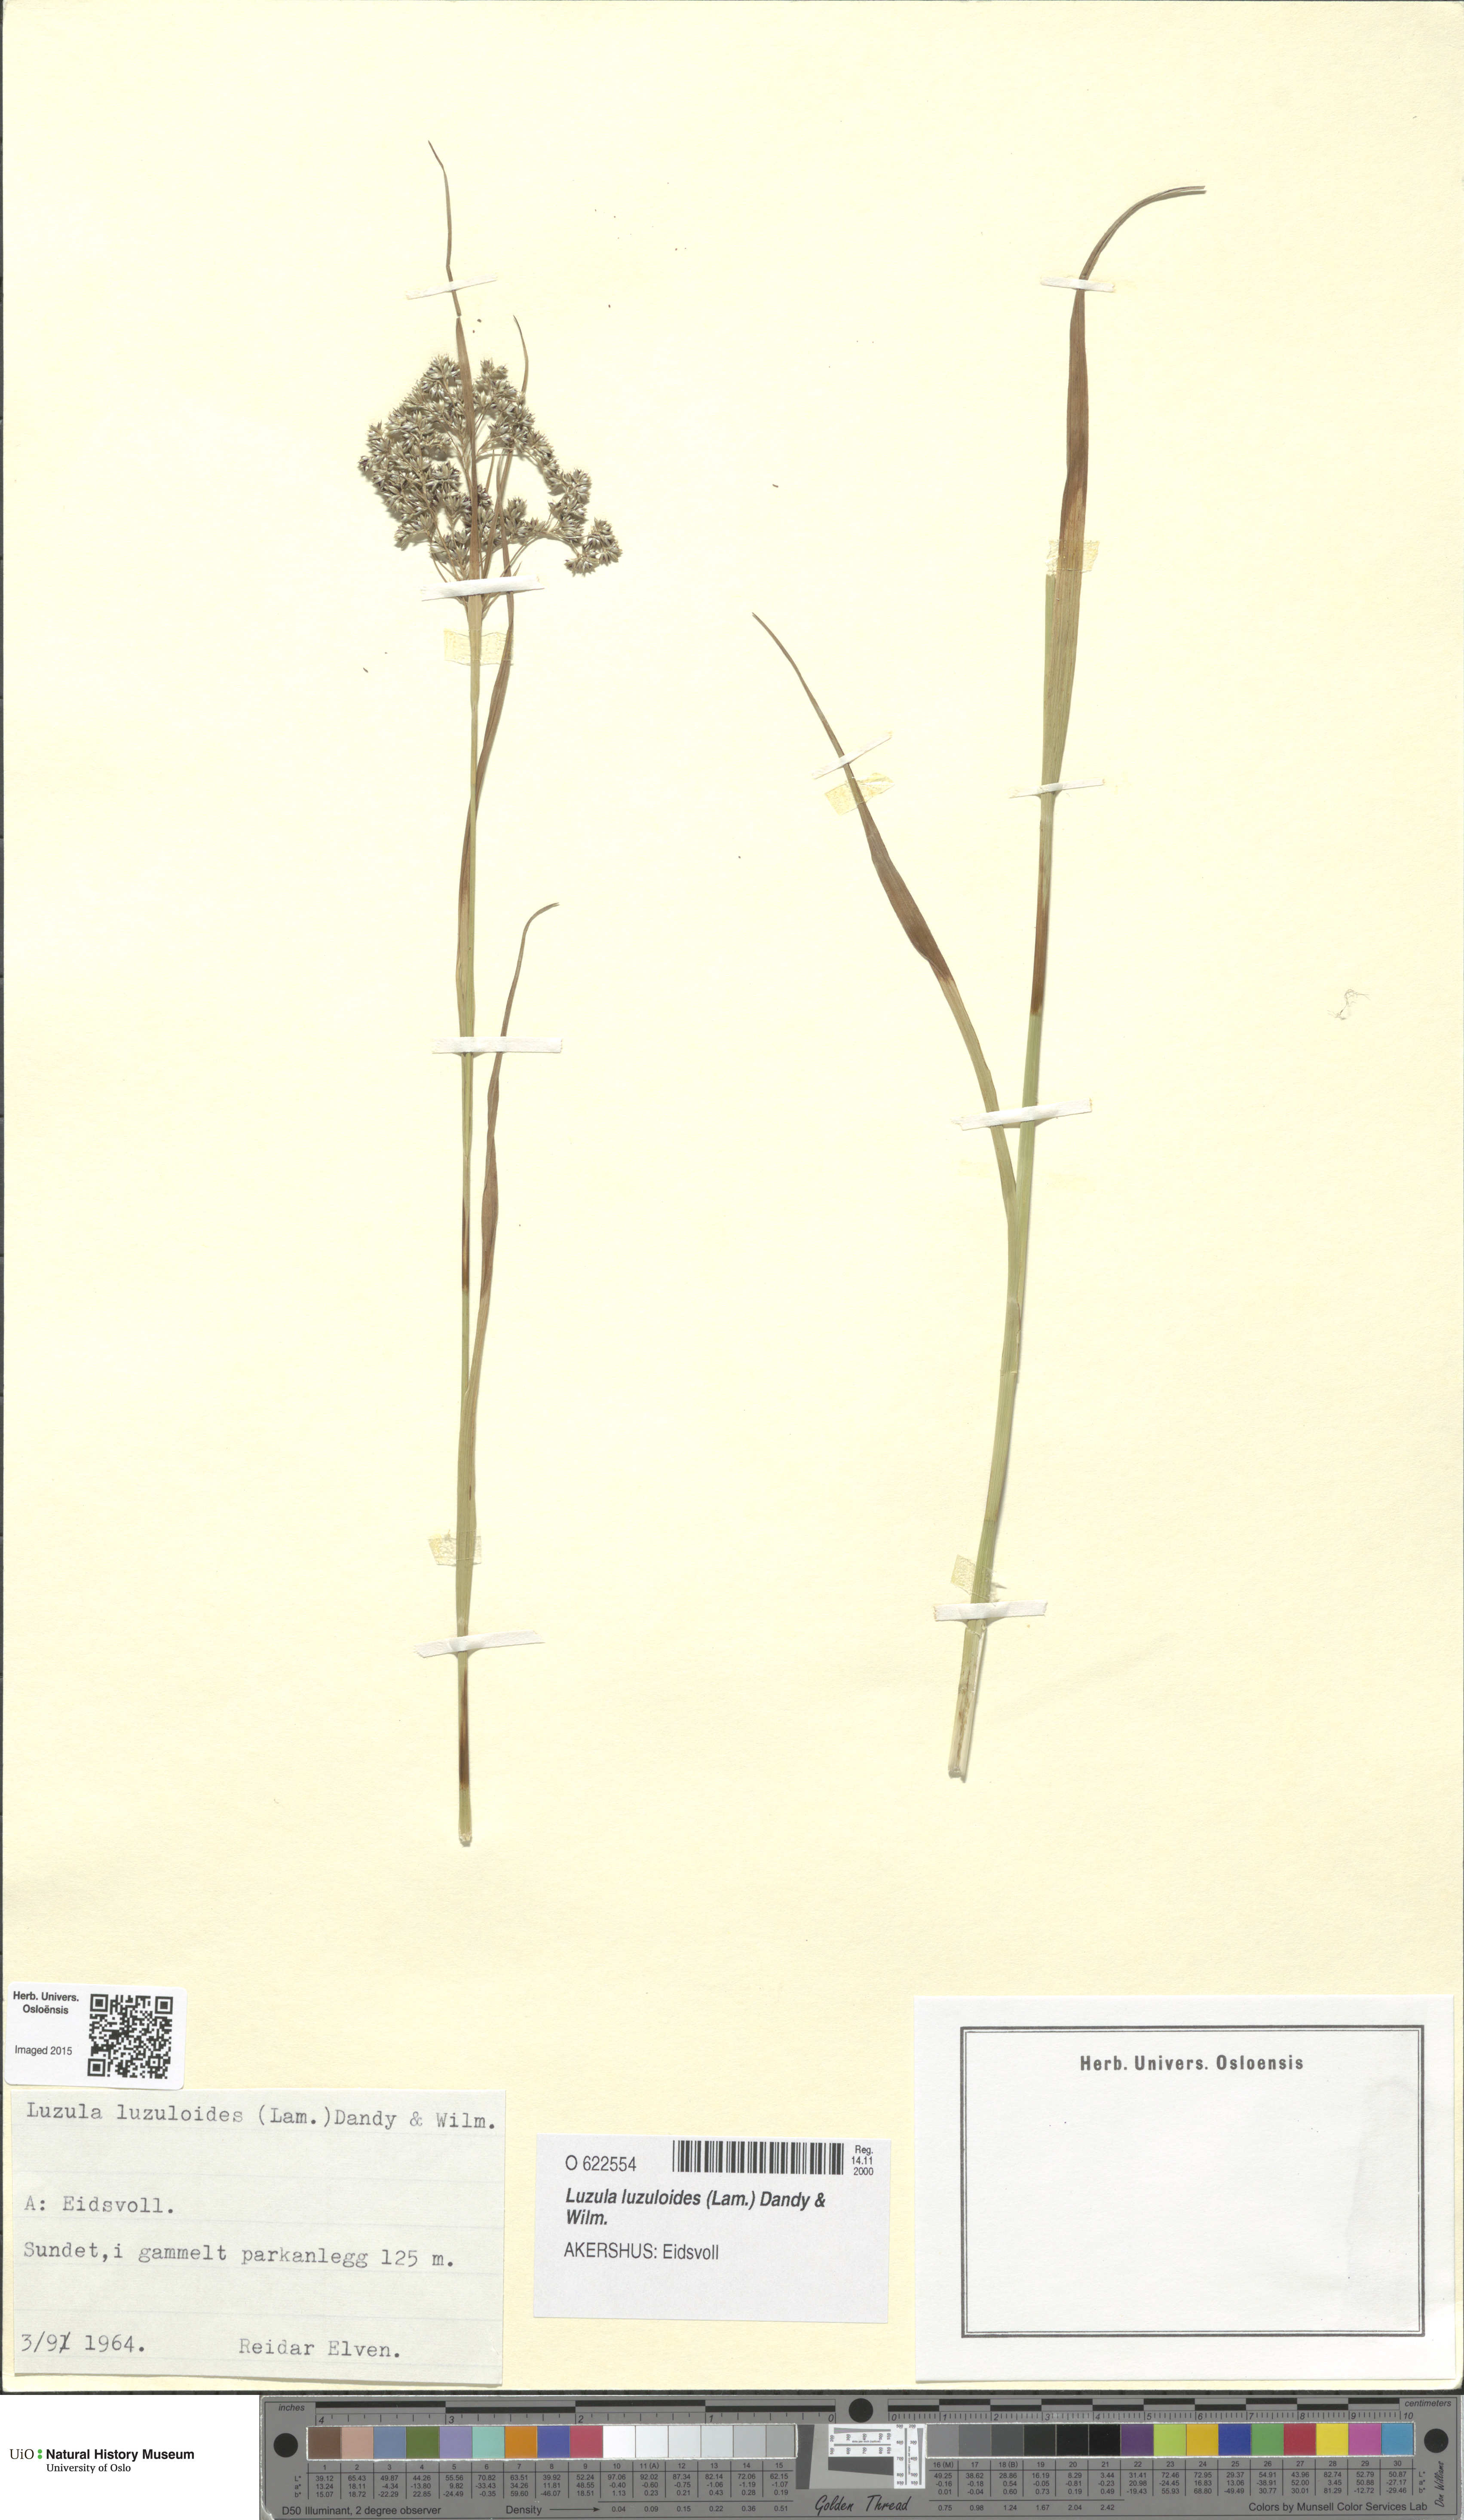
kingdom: Plantae
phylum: Tracheophyta
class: Liliopsida
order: Poales
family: Juncaceae
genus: Luzula
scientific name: Luzula luzuloides
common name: White wood-rush
